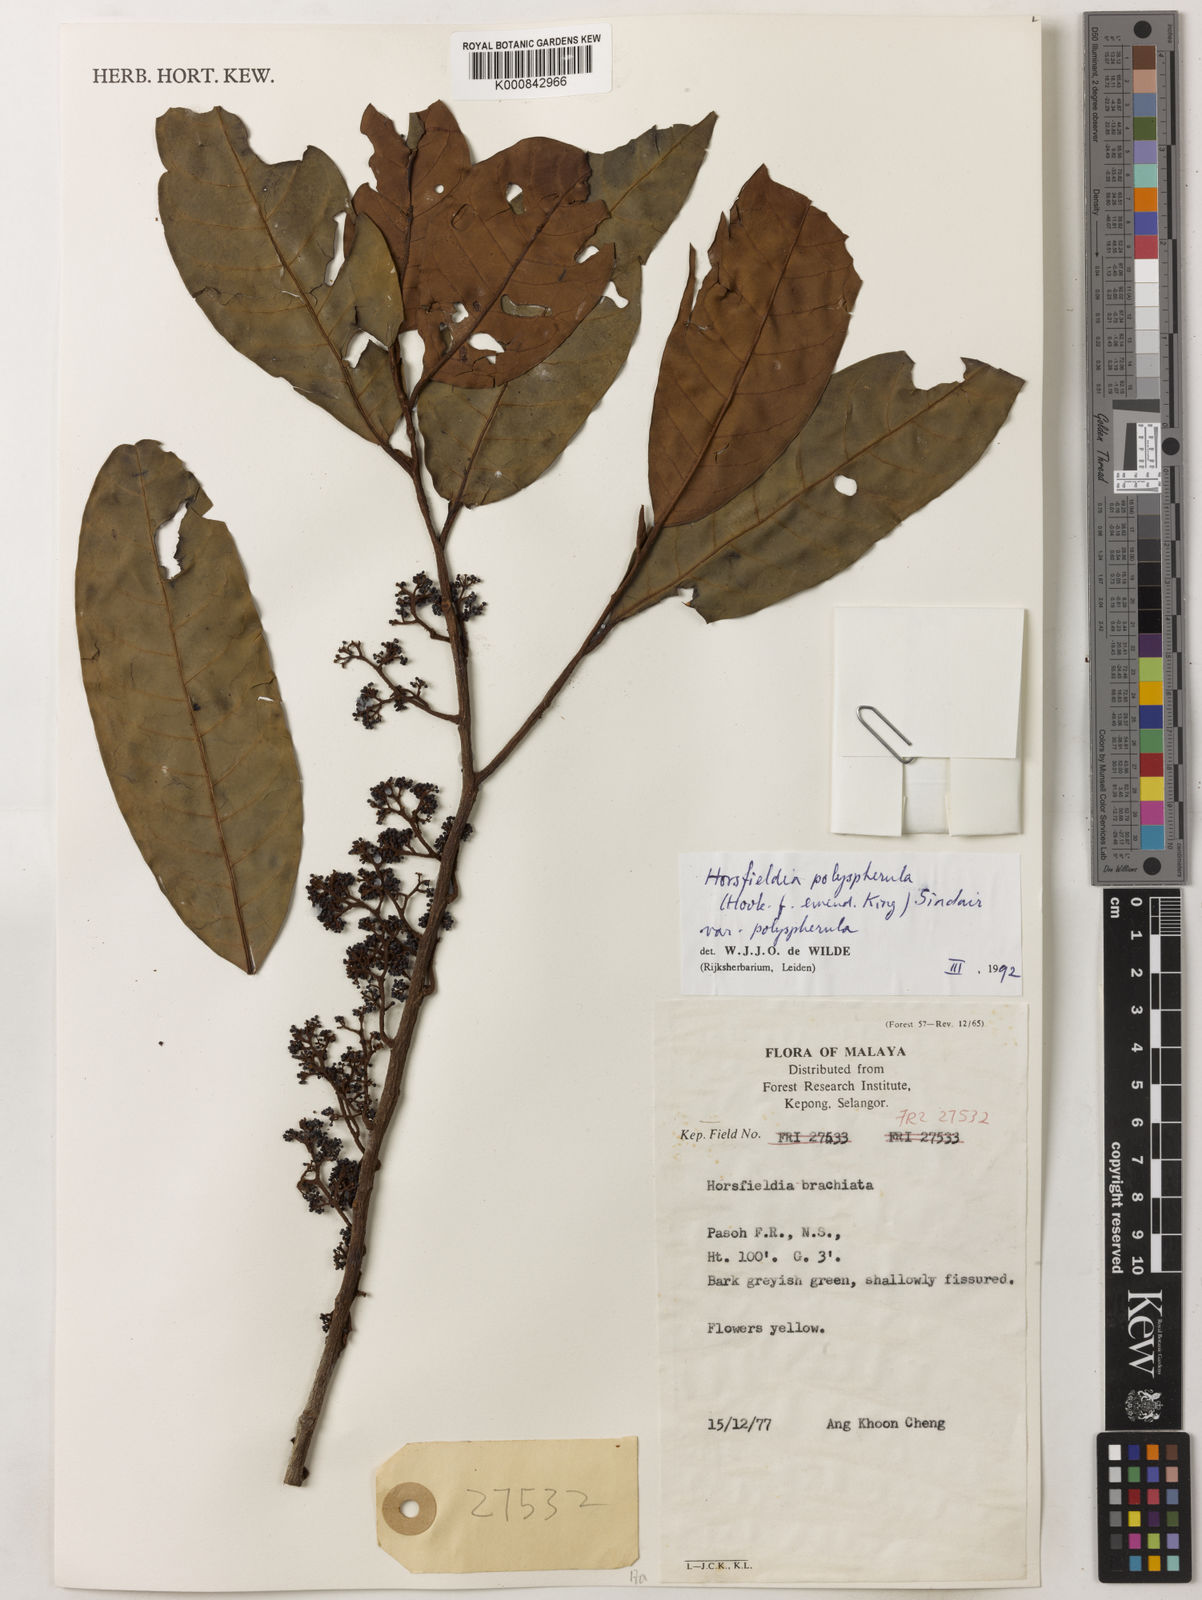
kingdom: Plantae
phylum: Tracheophyta
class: Magnoliopsida
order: Magnoliales
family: Myristicaceae
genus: Horsfieldia
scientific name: Horsfieldia
